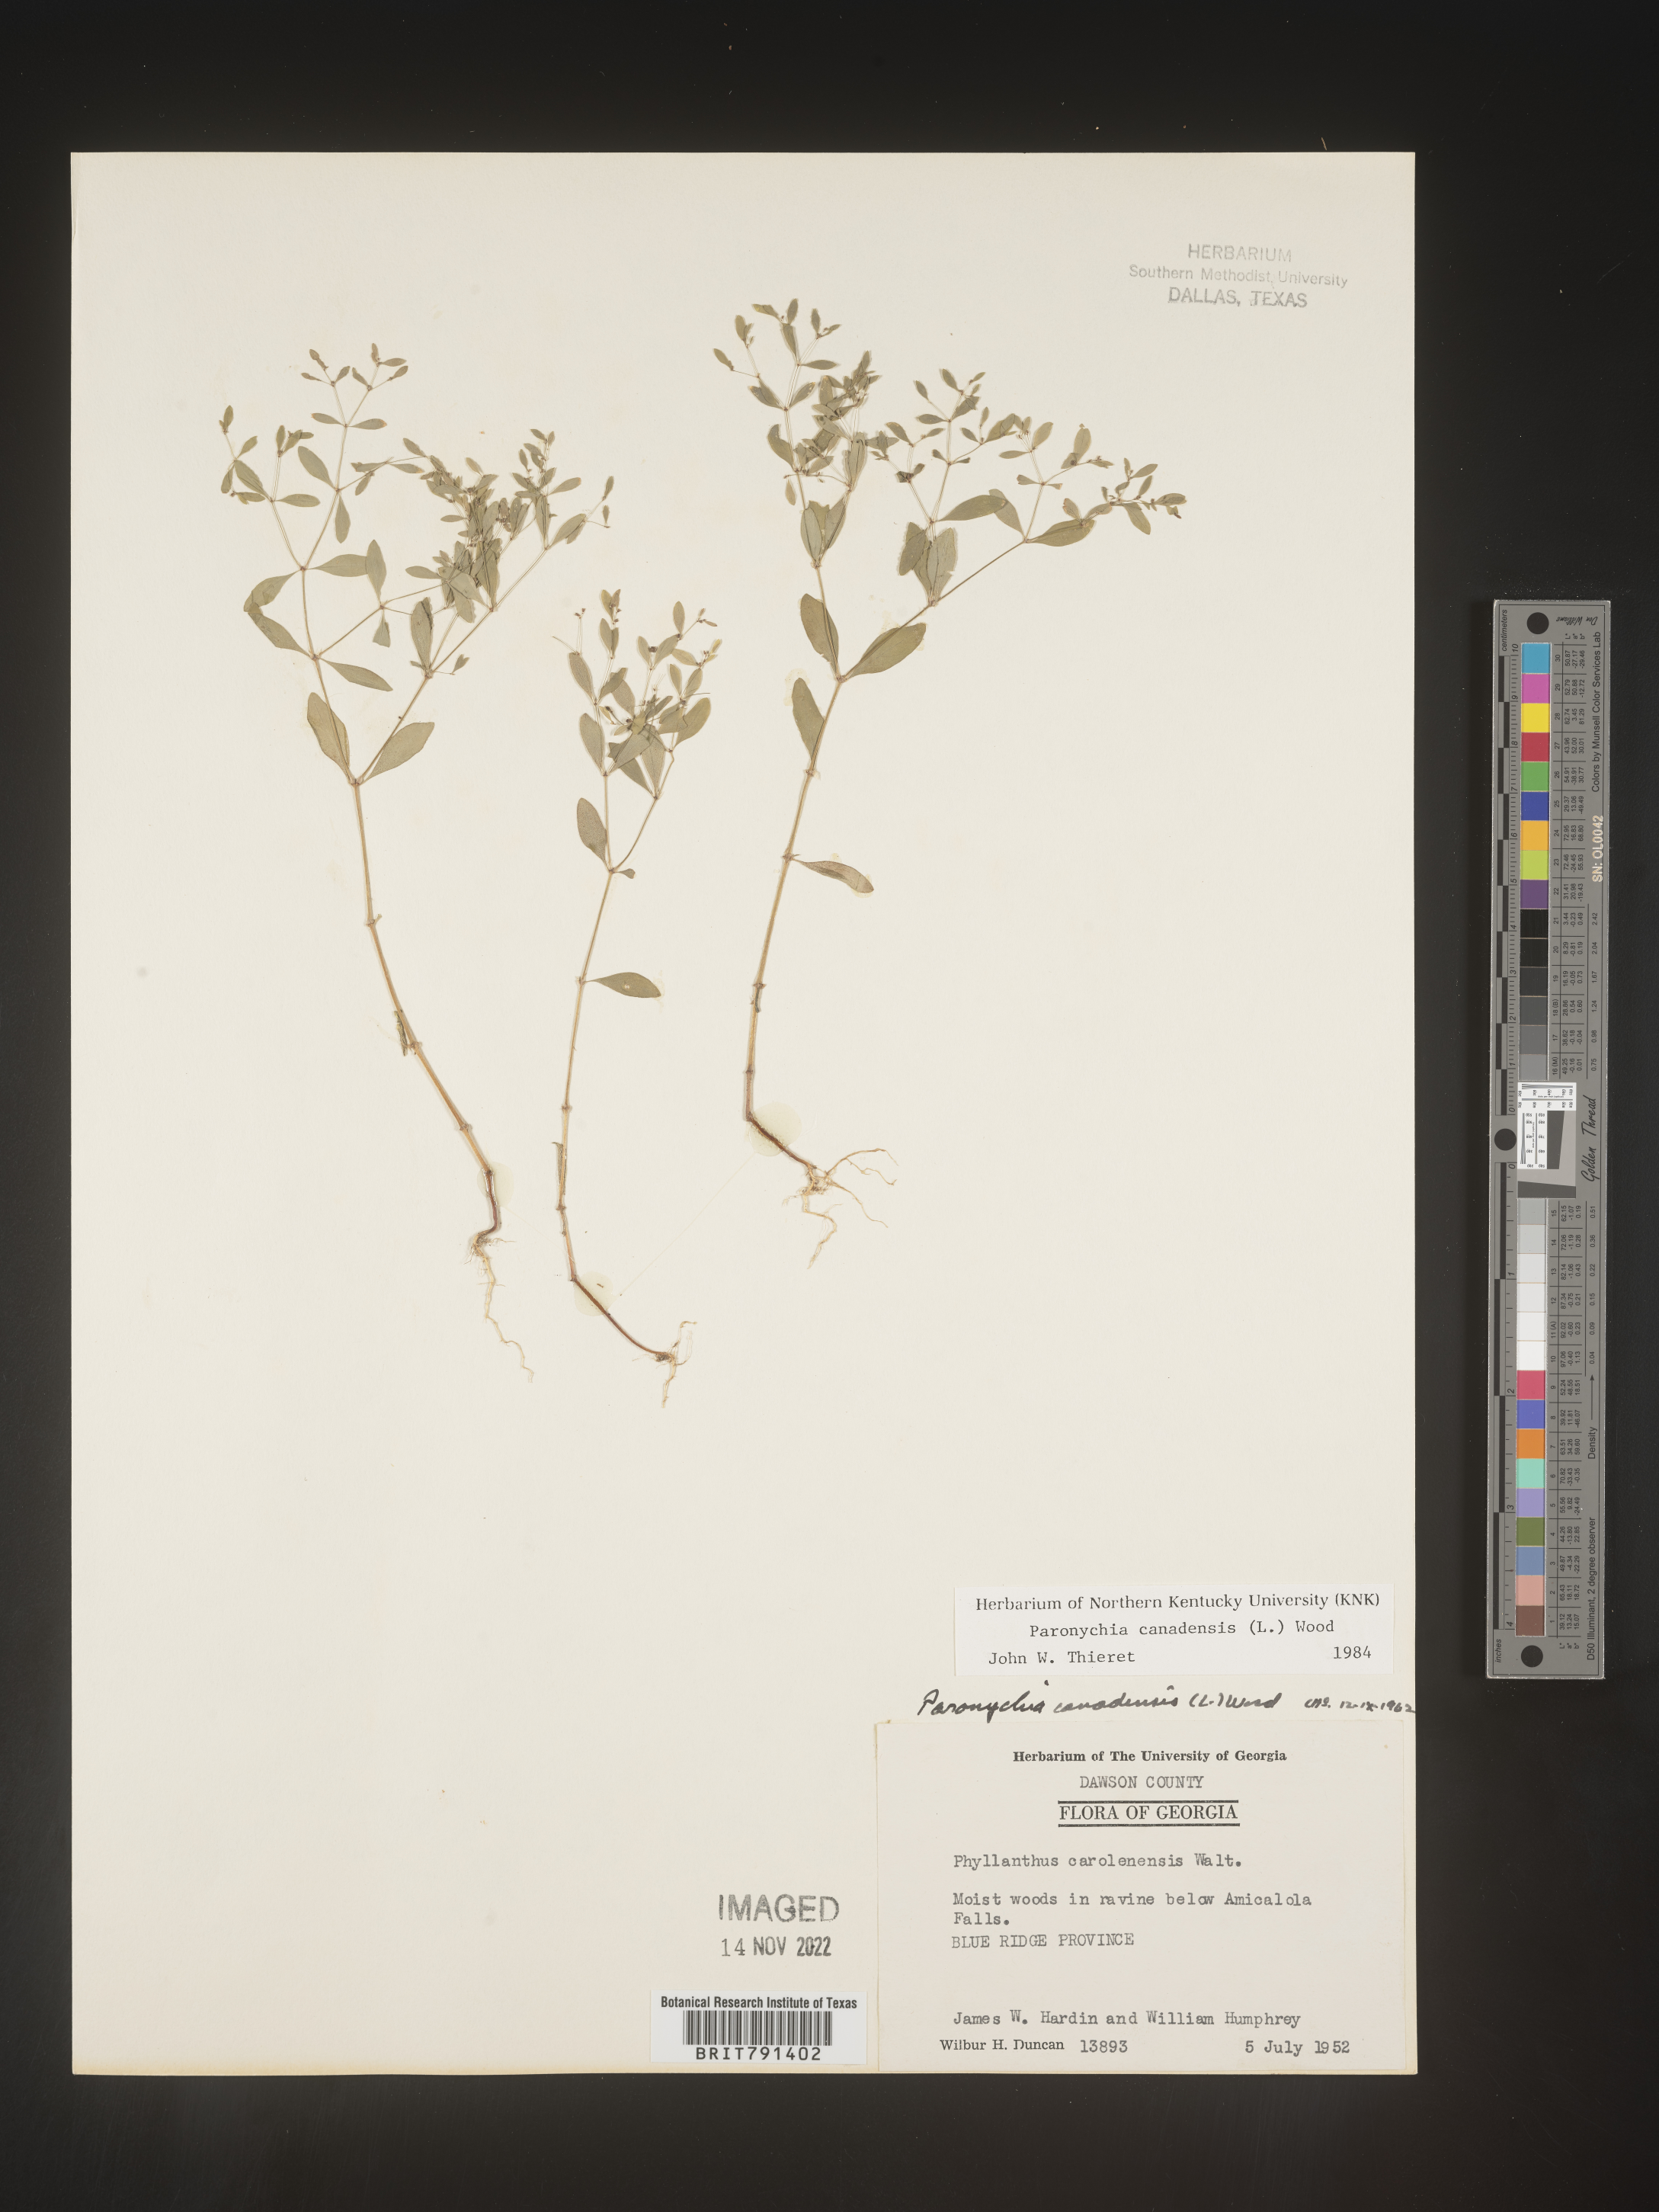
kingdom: Plantae
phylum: Tracheophyta
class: Magnoliopsida
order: Caryophyllales
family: Caryophyllaceae
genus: Paronychia
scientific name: Paronychia canadensis
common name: Canada forked nailwort
